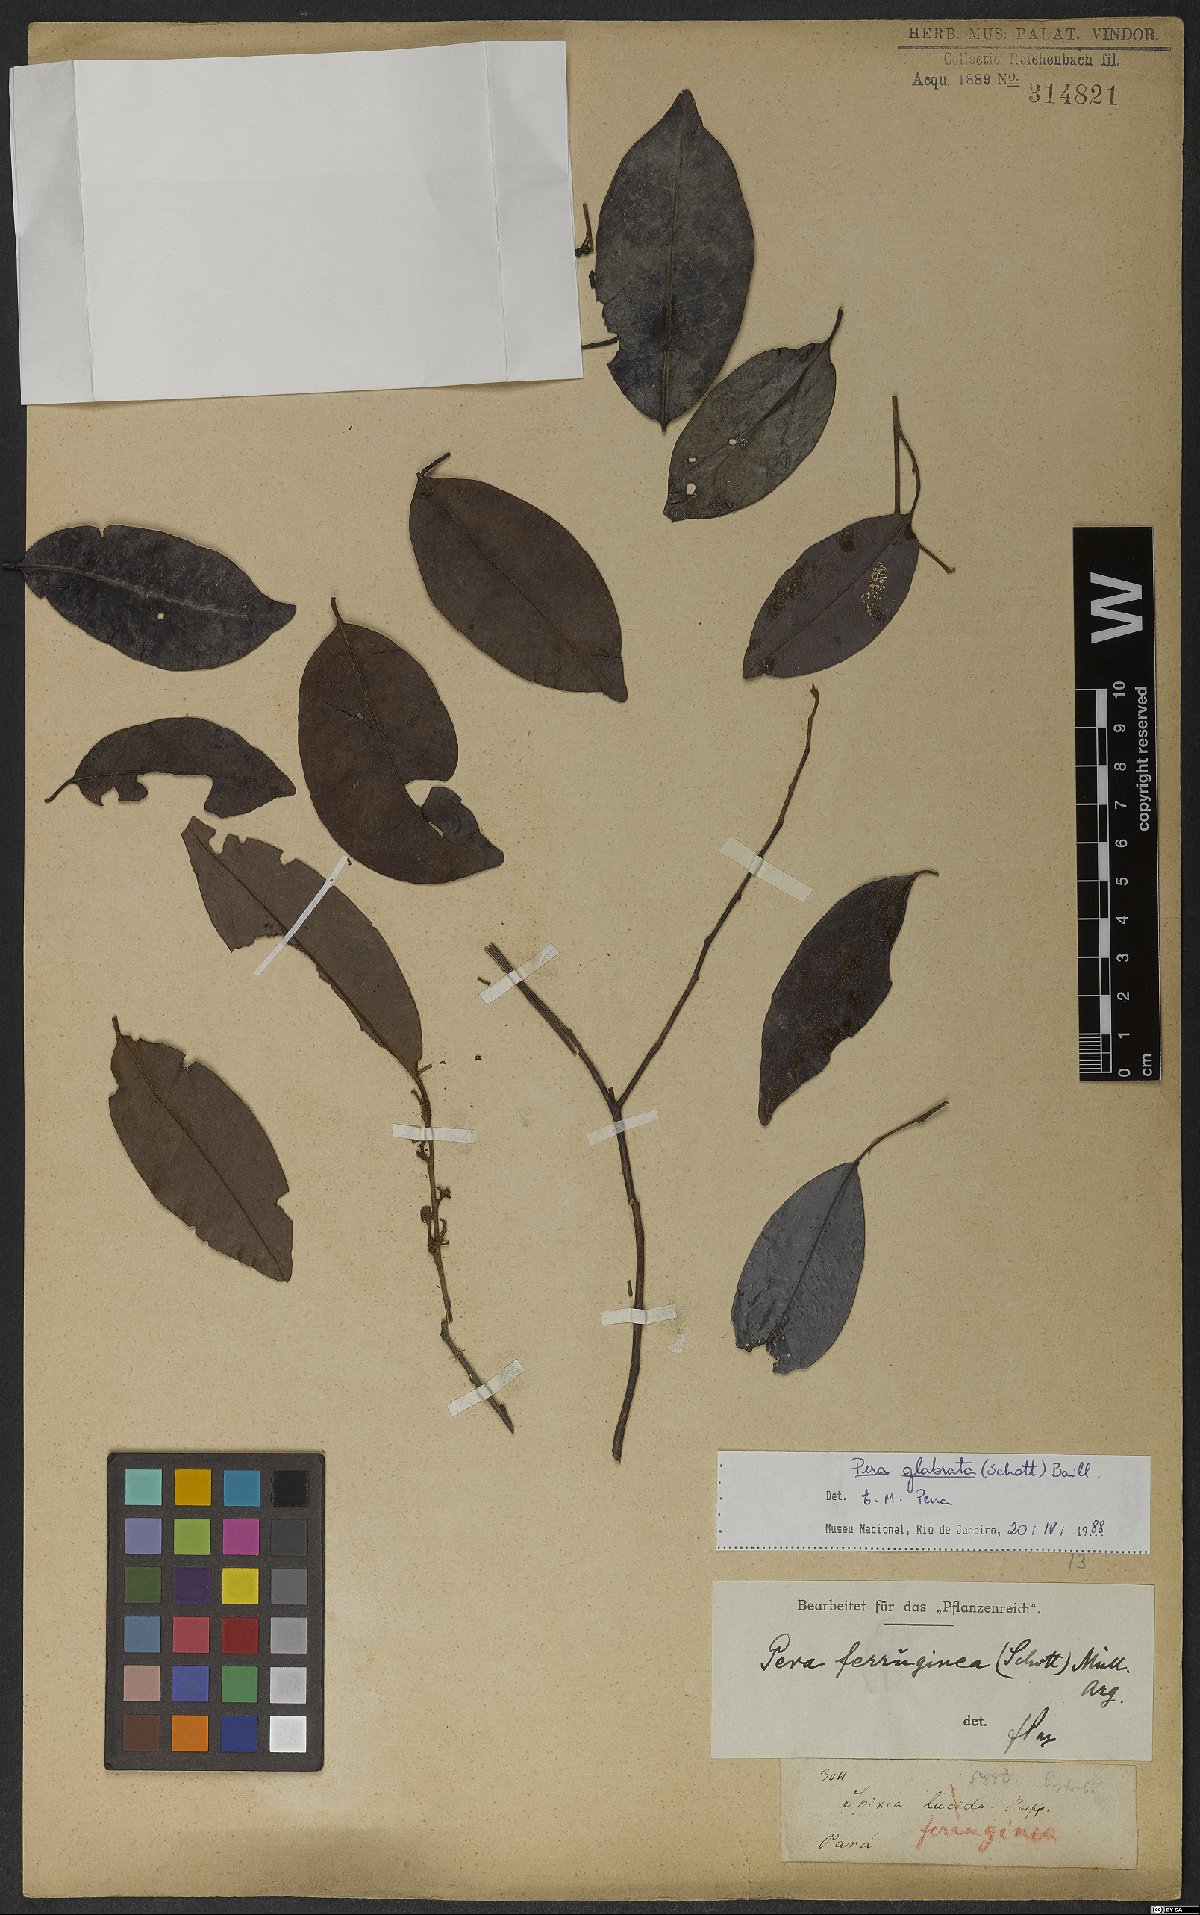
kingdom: Plantae
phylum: Tracheophyta
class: Magnoliopsida
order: Malpighiales
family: Peraceae
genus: Pera
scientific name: Pera glabrata
